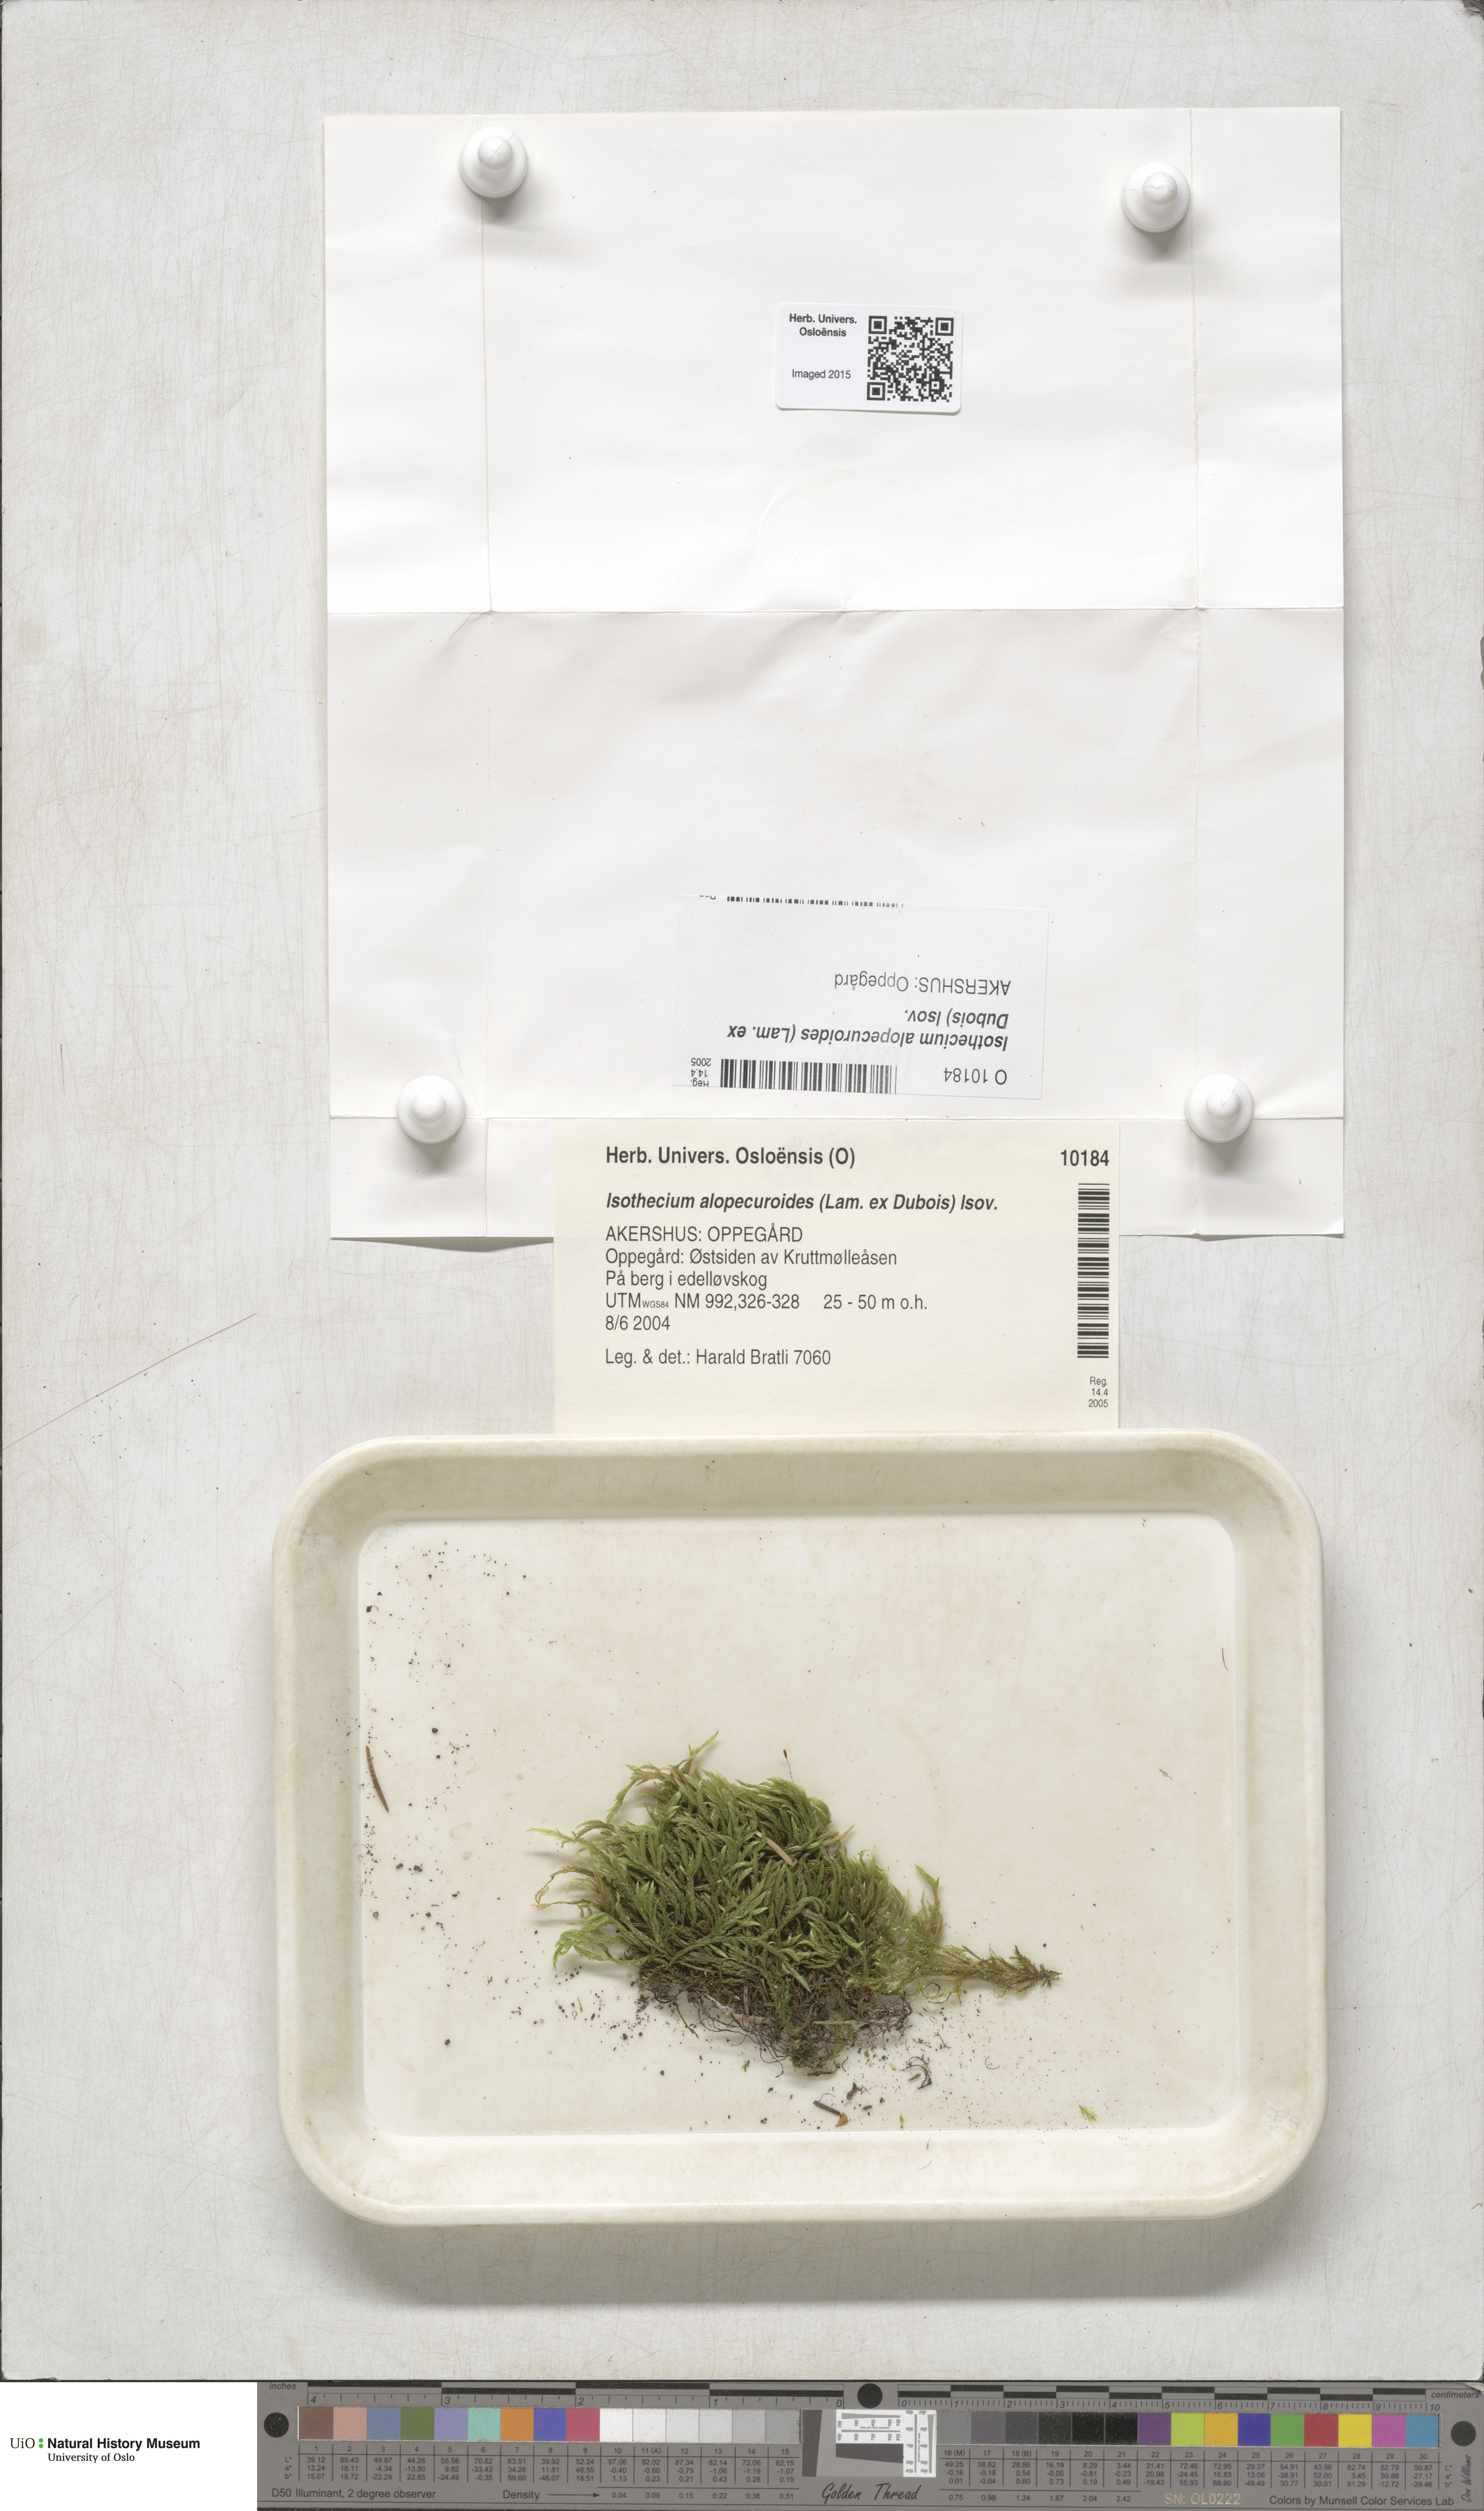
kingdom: Plantae
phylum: Bryophyta
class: Bryopsida
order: Hypnales
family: Lembophyllaceae
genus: Isothecium
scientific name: Isothecium alopecuroides
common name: Larger mouse-tail moss
